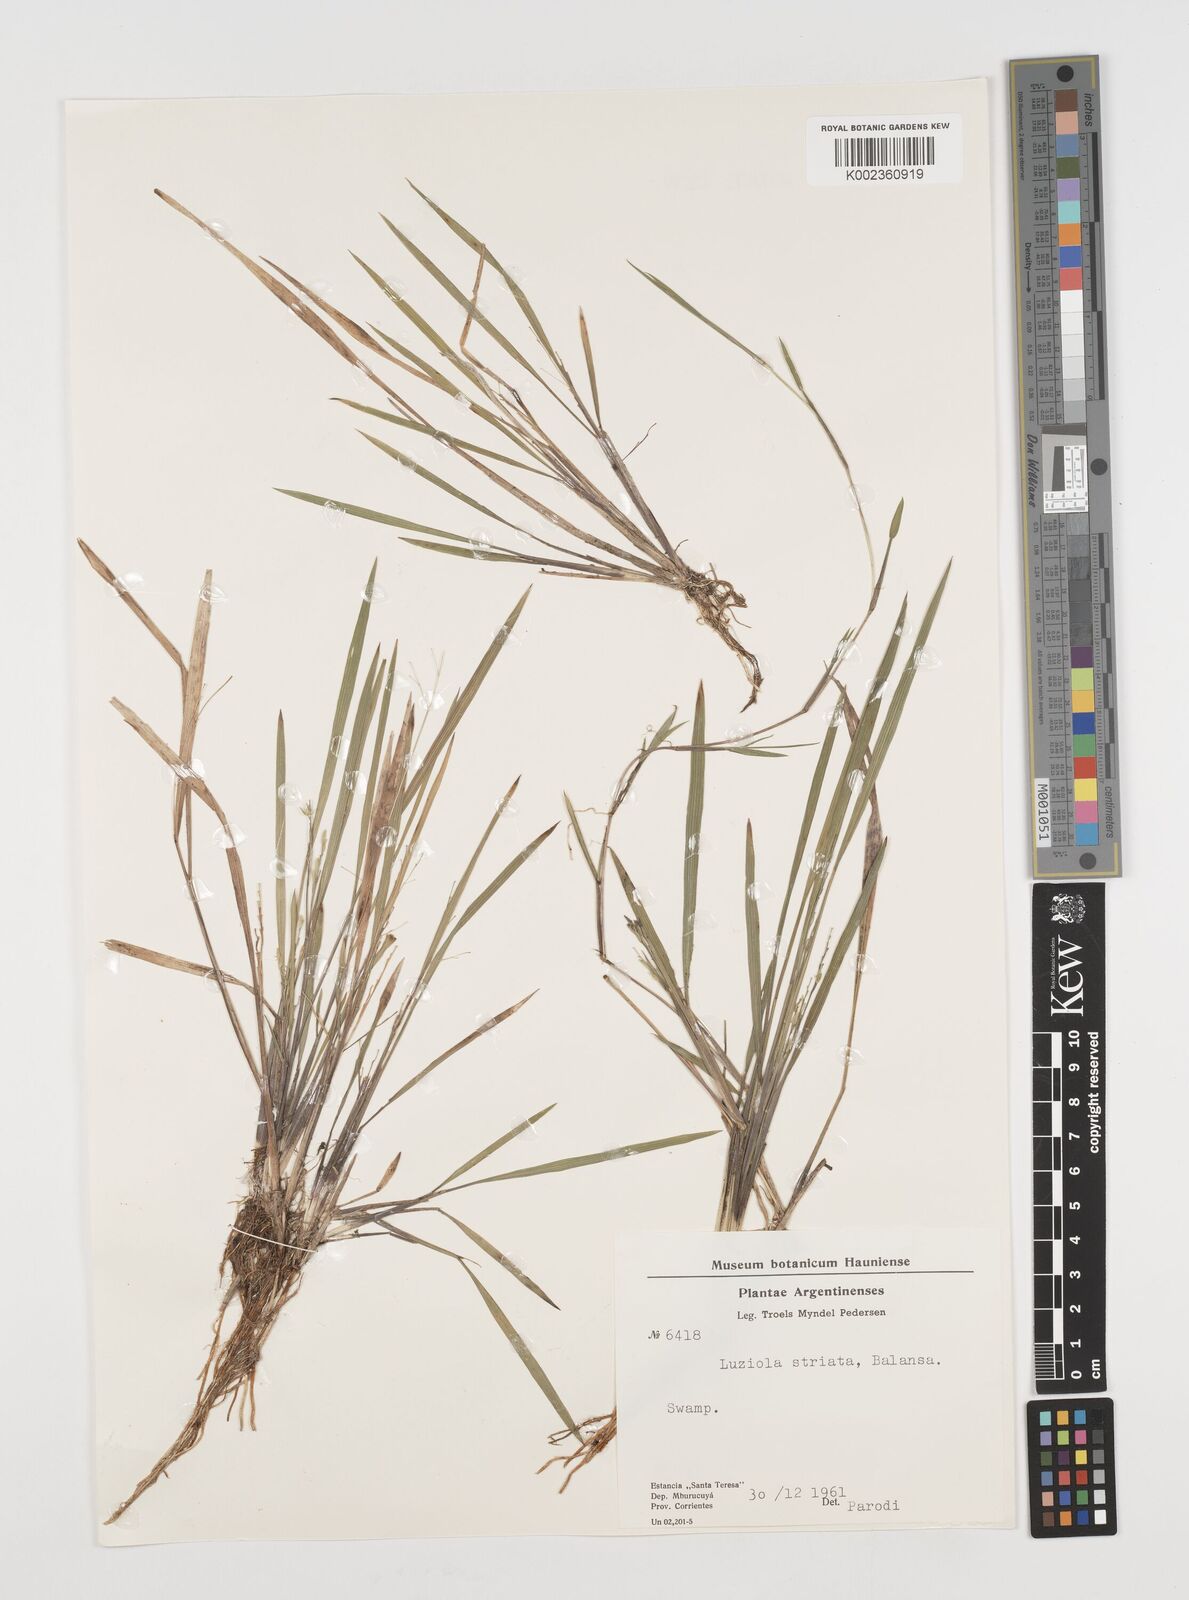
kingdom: Plantae
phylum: Tracheophyta
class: Liliopsida
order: Poales
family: Poaceae
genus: Luziola
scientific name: Luziola bahiensis
